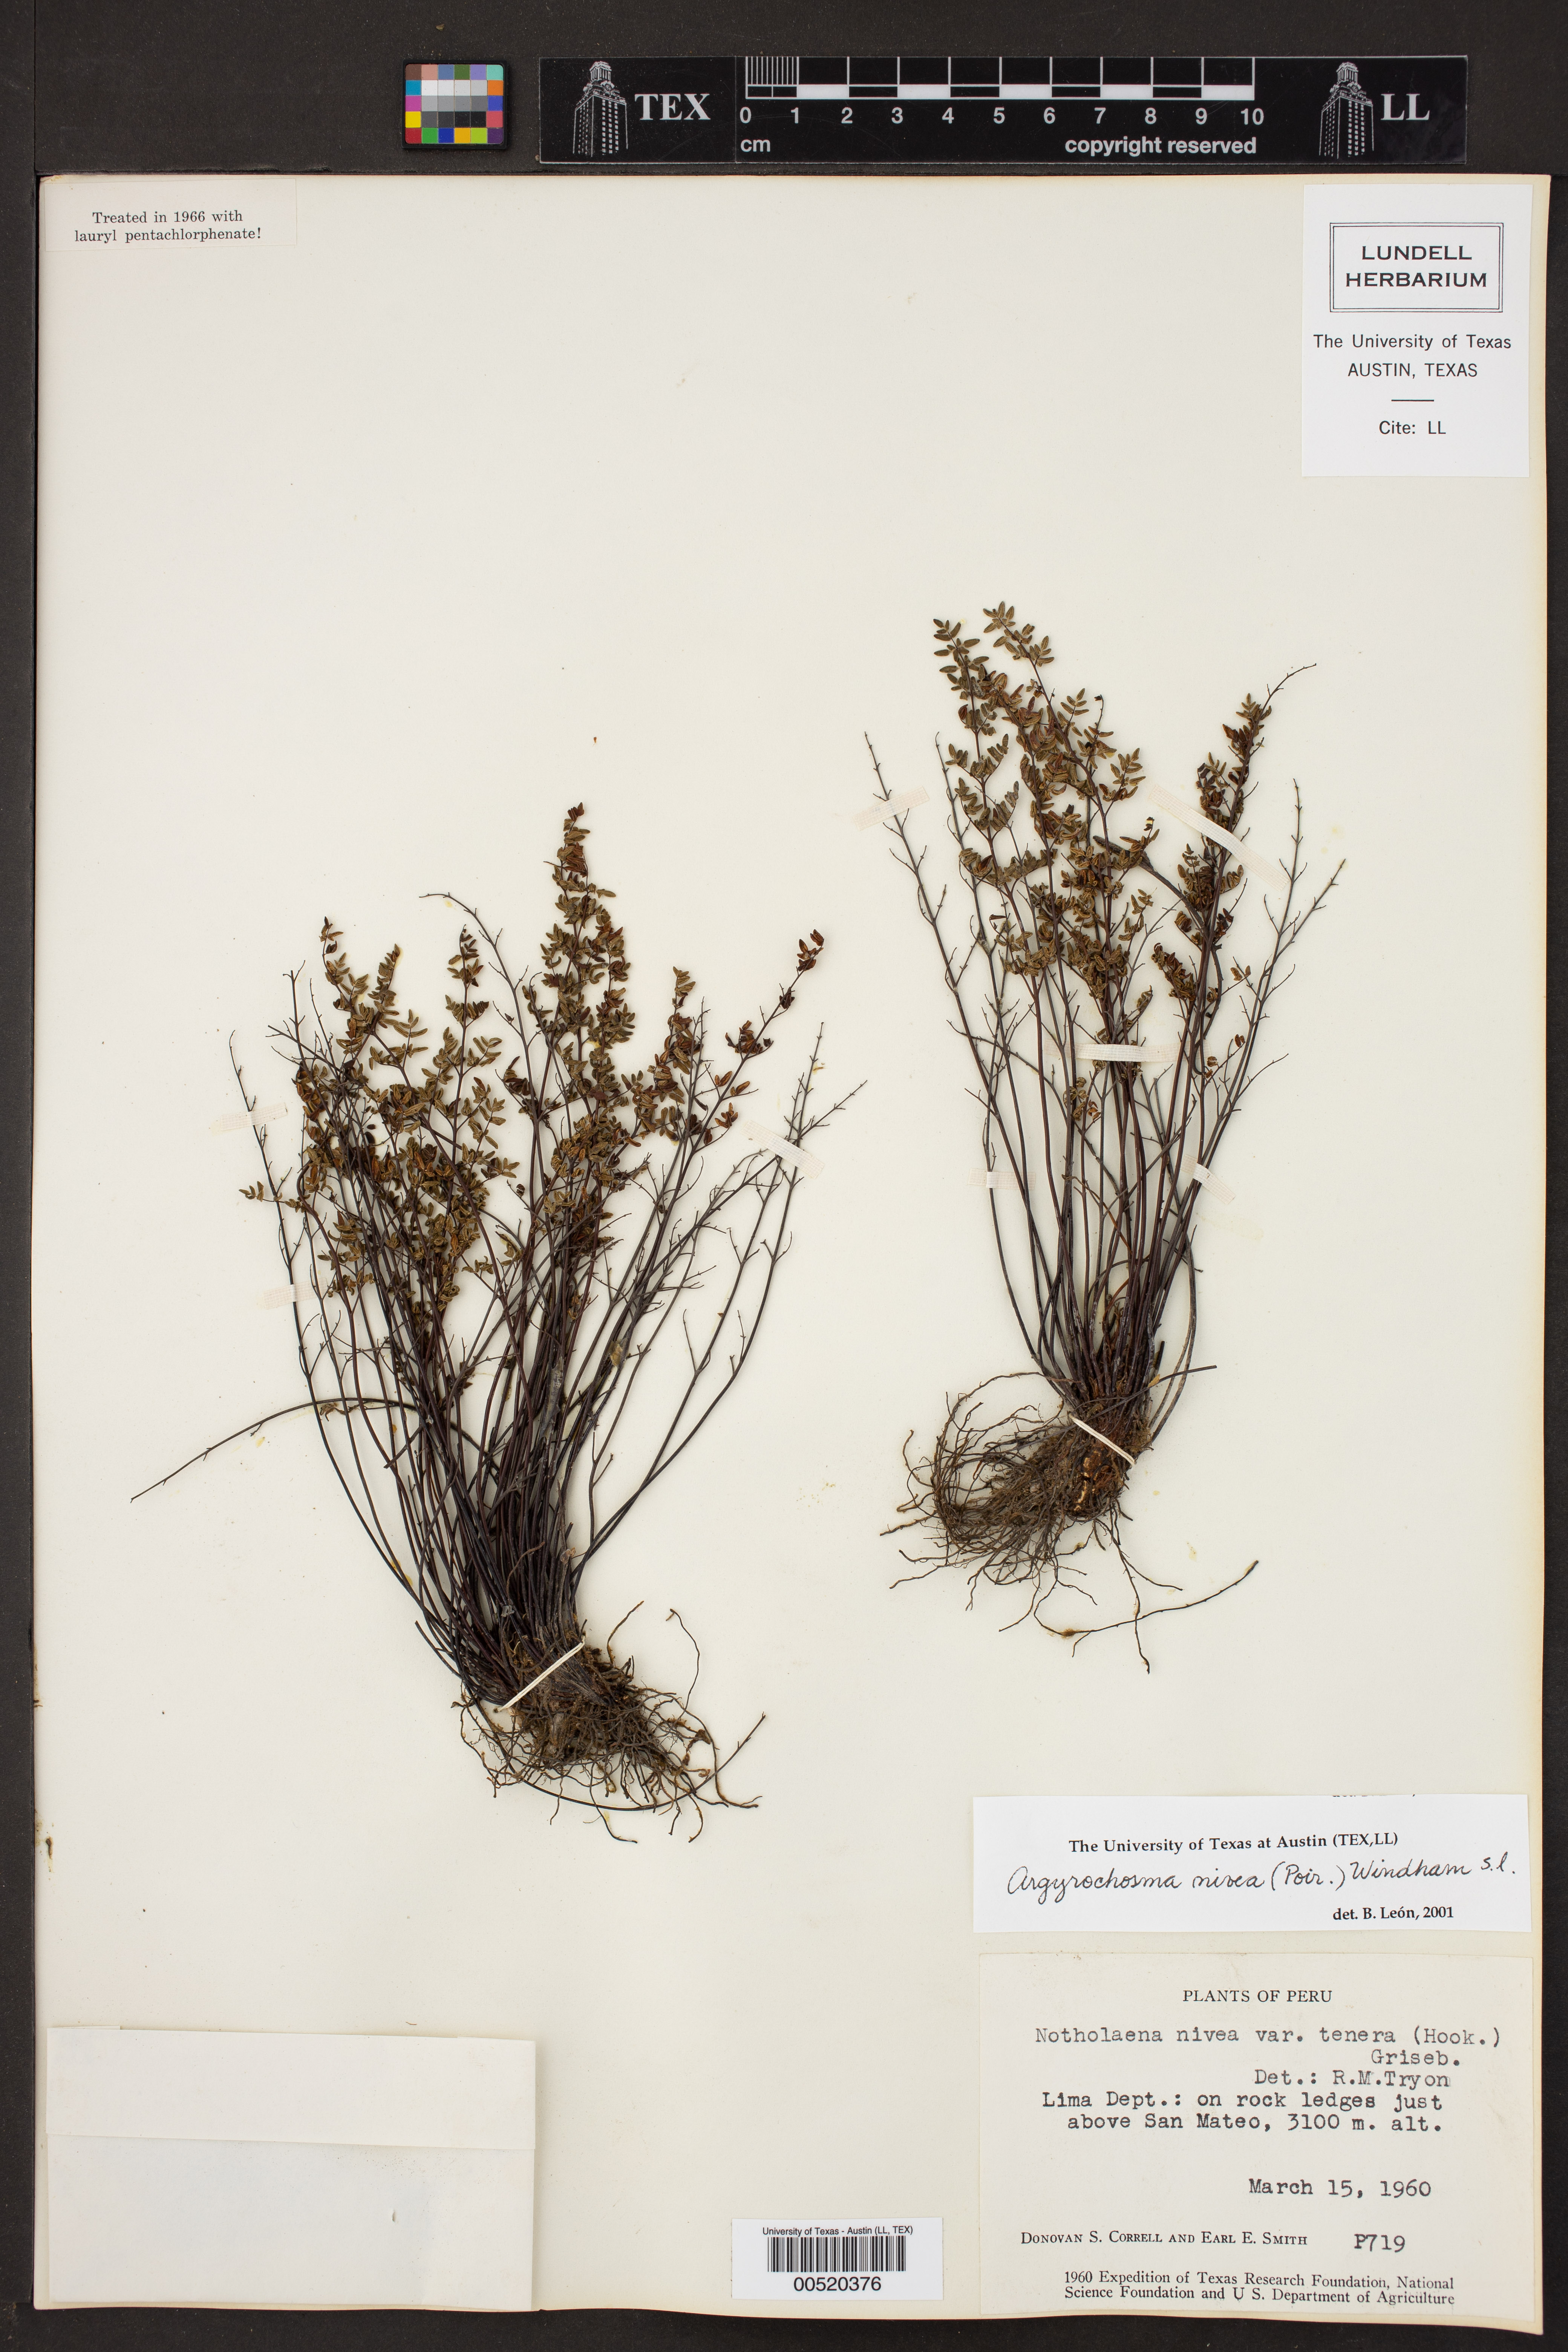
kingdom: Plantae
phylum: Tracheophyta
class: Polypodiopsida
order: Polypodiales
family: Pteridaceae
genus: Argyrochosma
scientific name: Argyrochosma nivea
